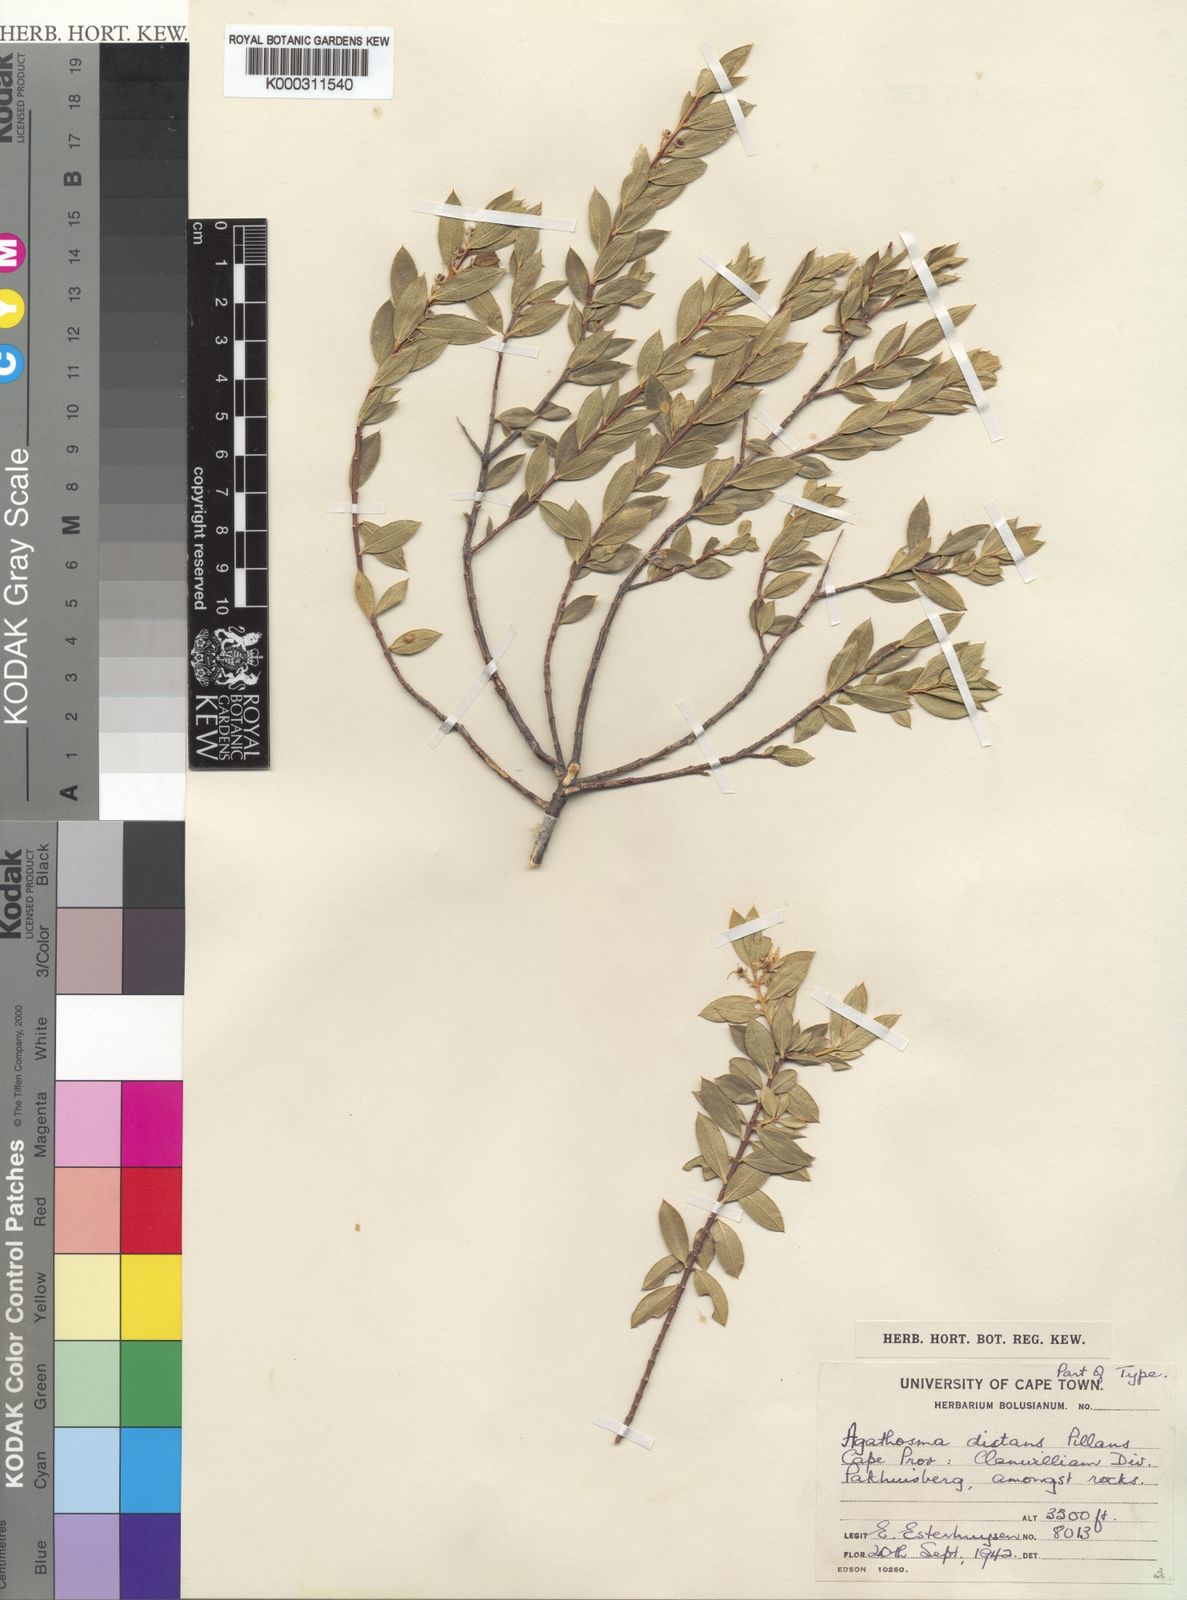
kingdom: Plantae
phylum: Tracheophyta
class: Magnoliopsida
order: Sapindales
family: Rutaceae
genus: Agathosma
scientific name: Agathosma
